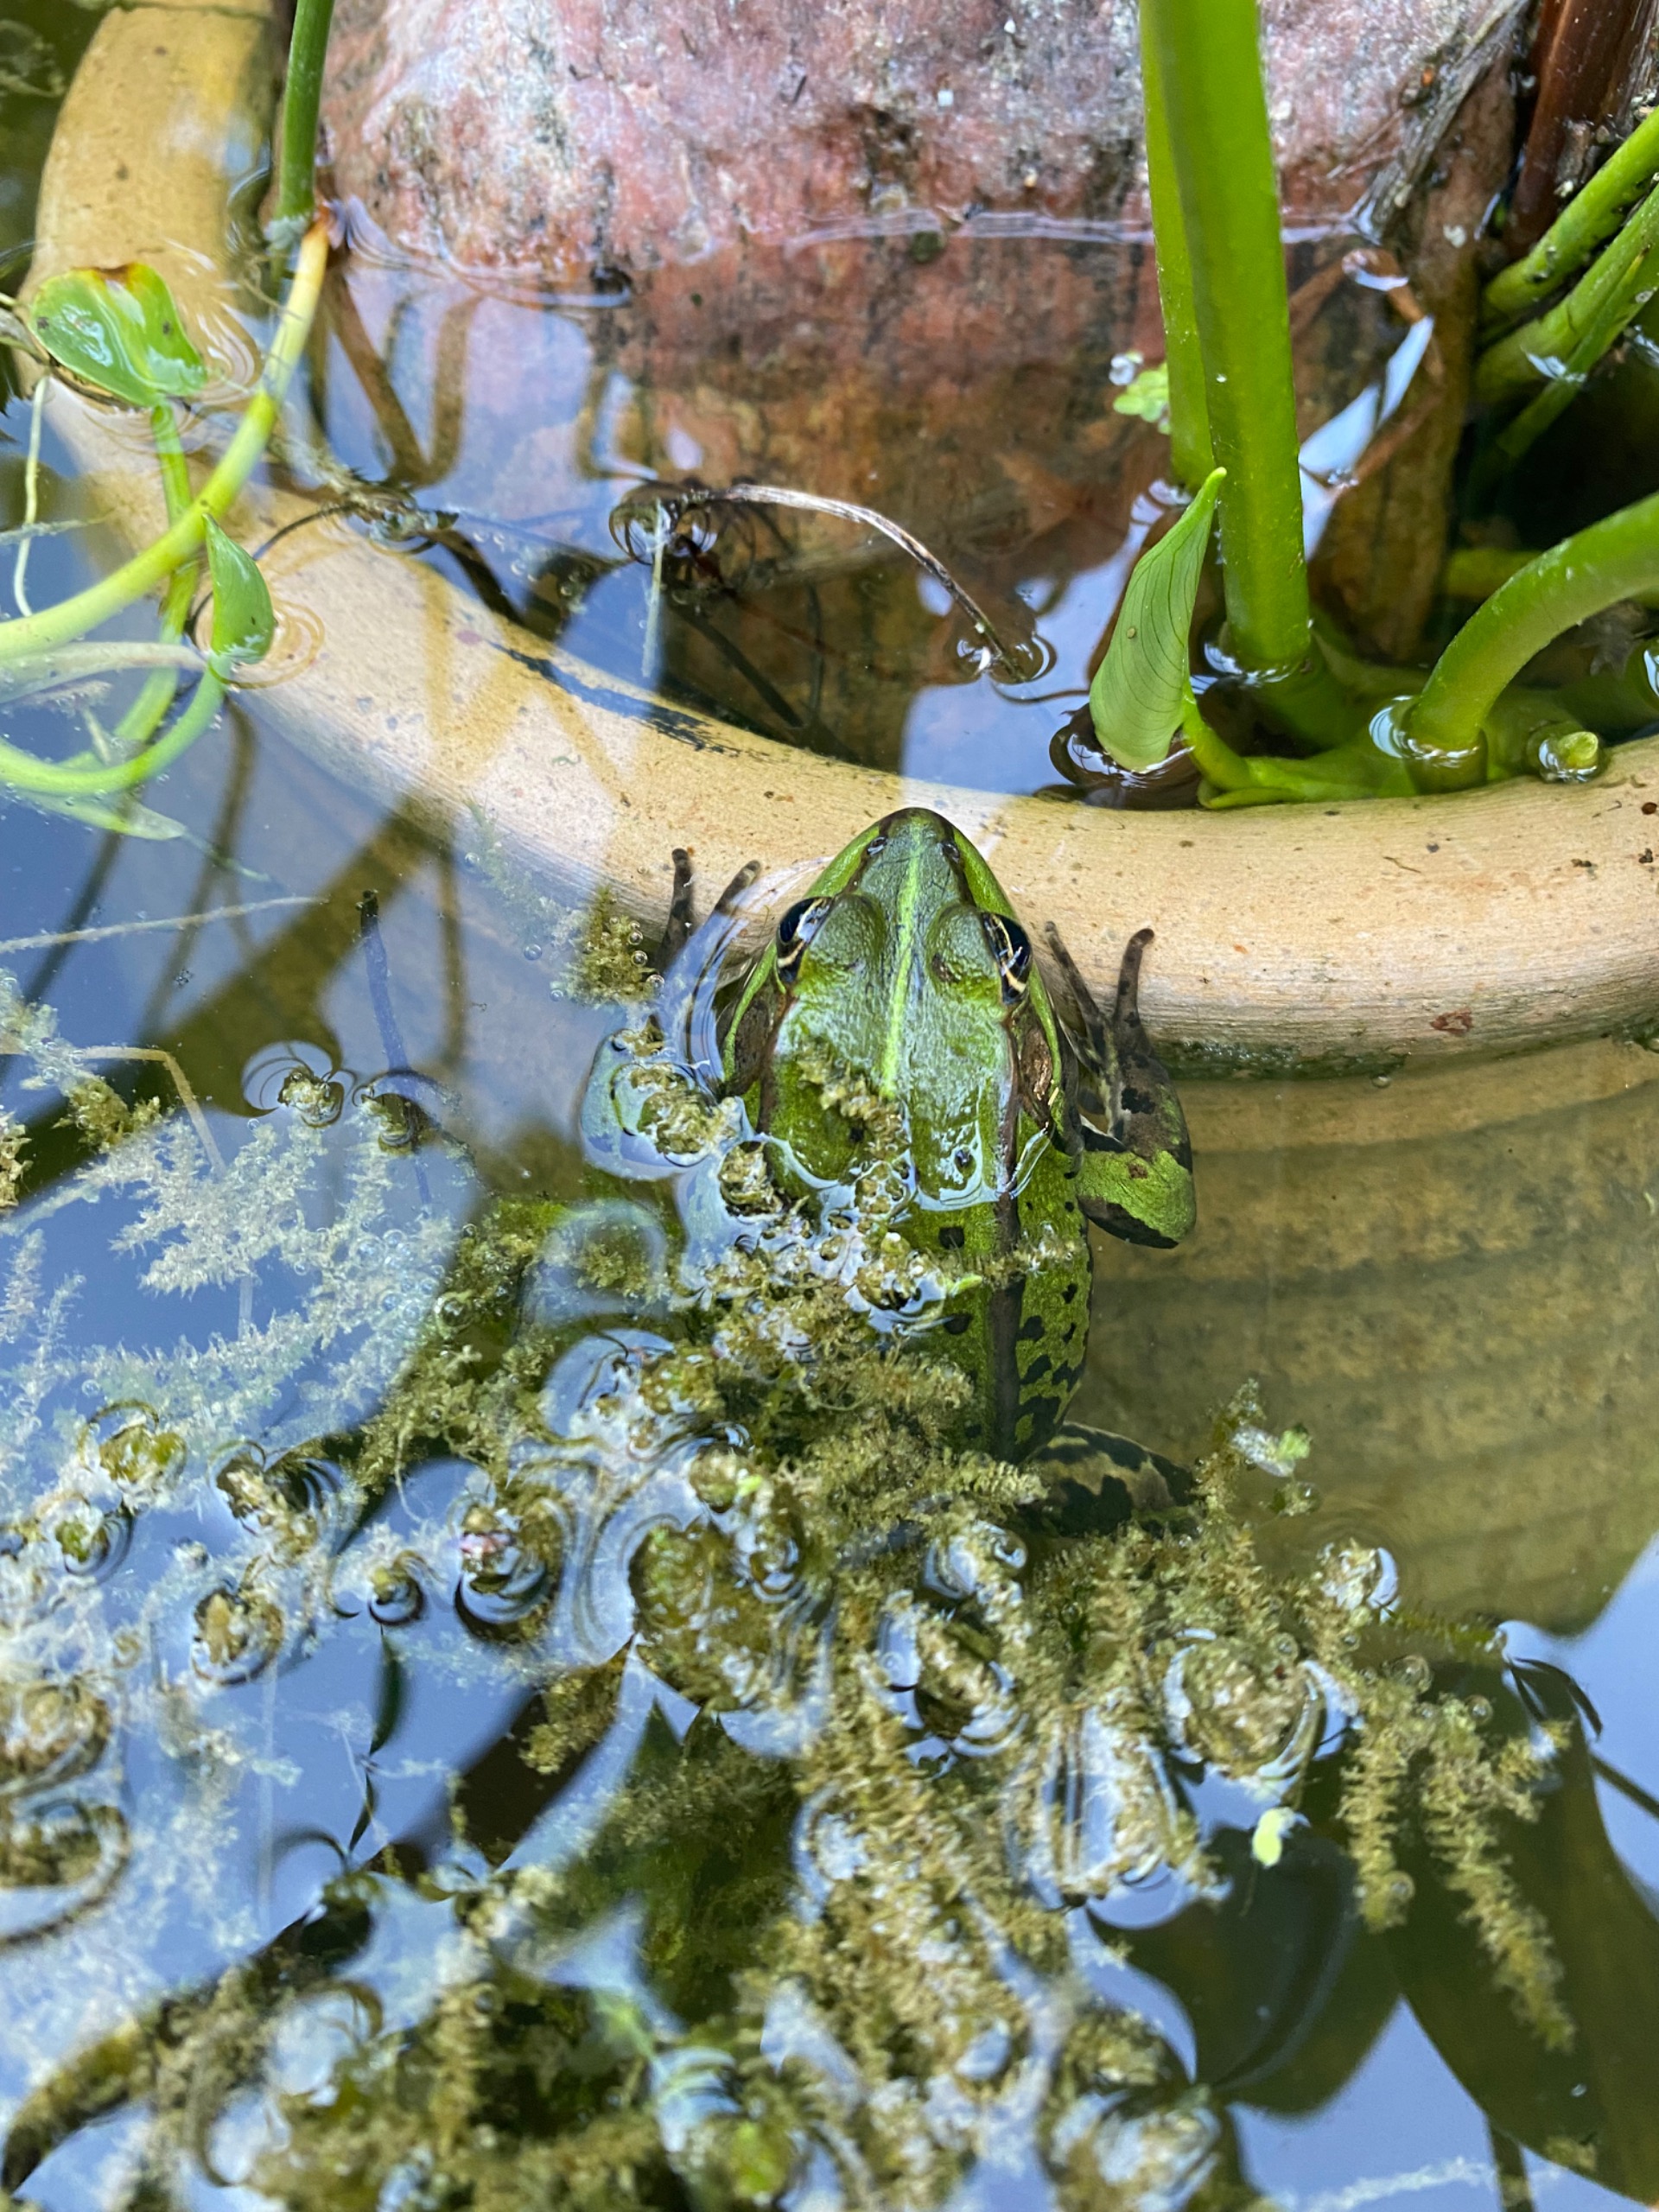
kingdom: Animalia
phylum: Chordata
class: Amphibia
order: Anura
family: Ranidae
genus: Pelophylax
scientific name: Pelophylax lessonae
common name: Grøn frø
